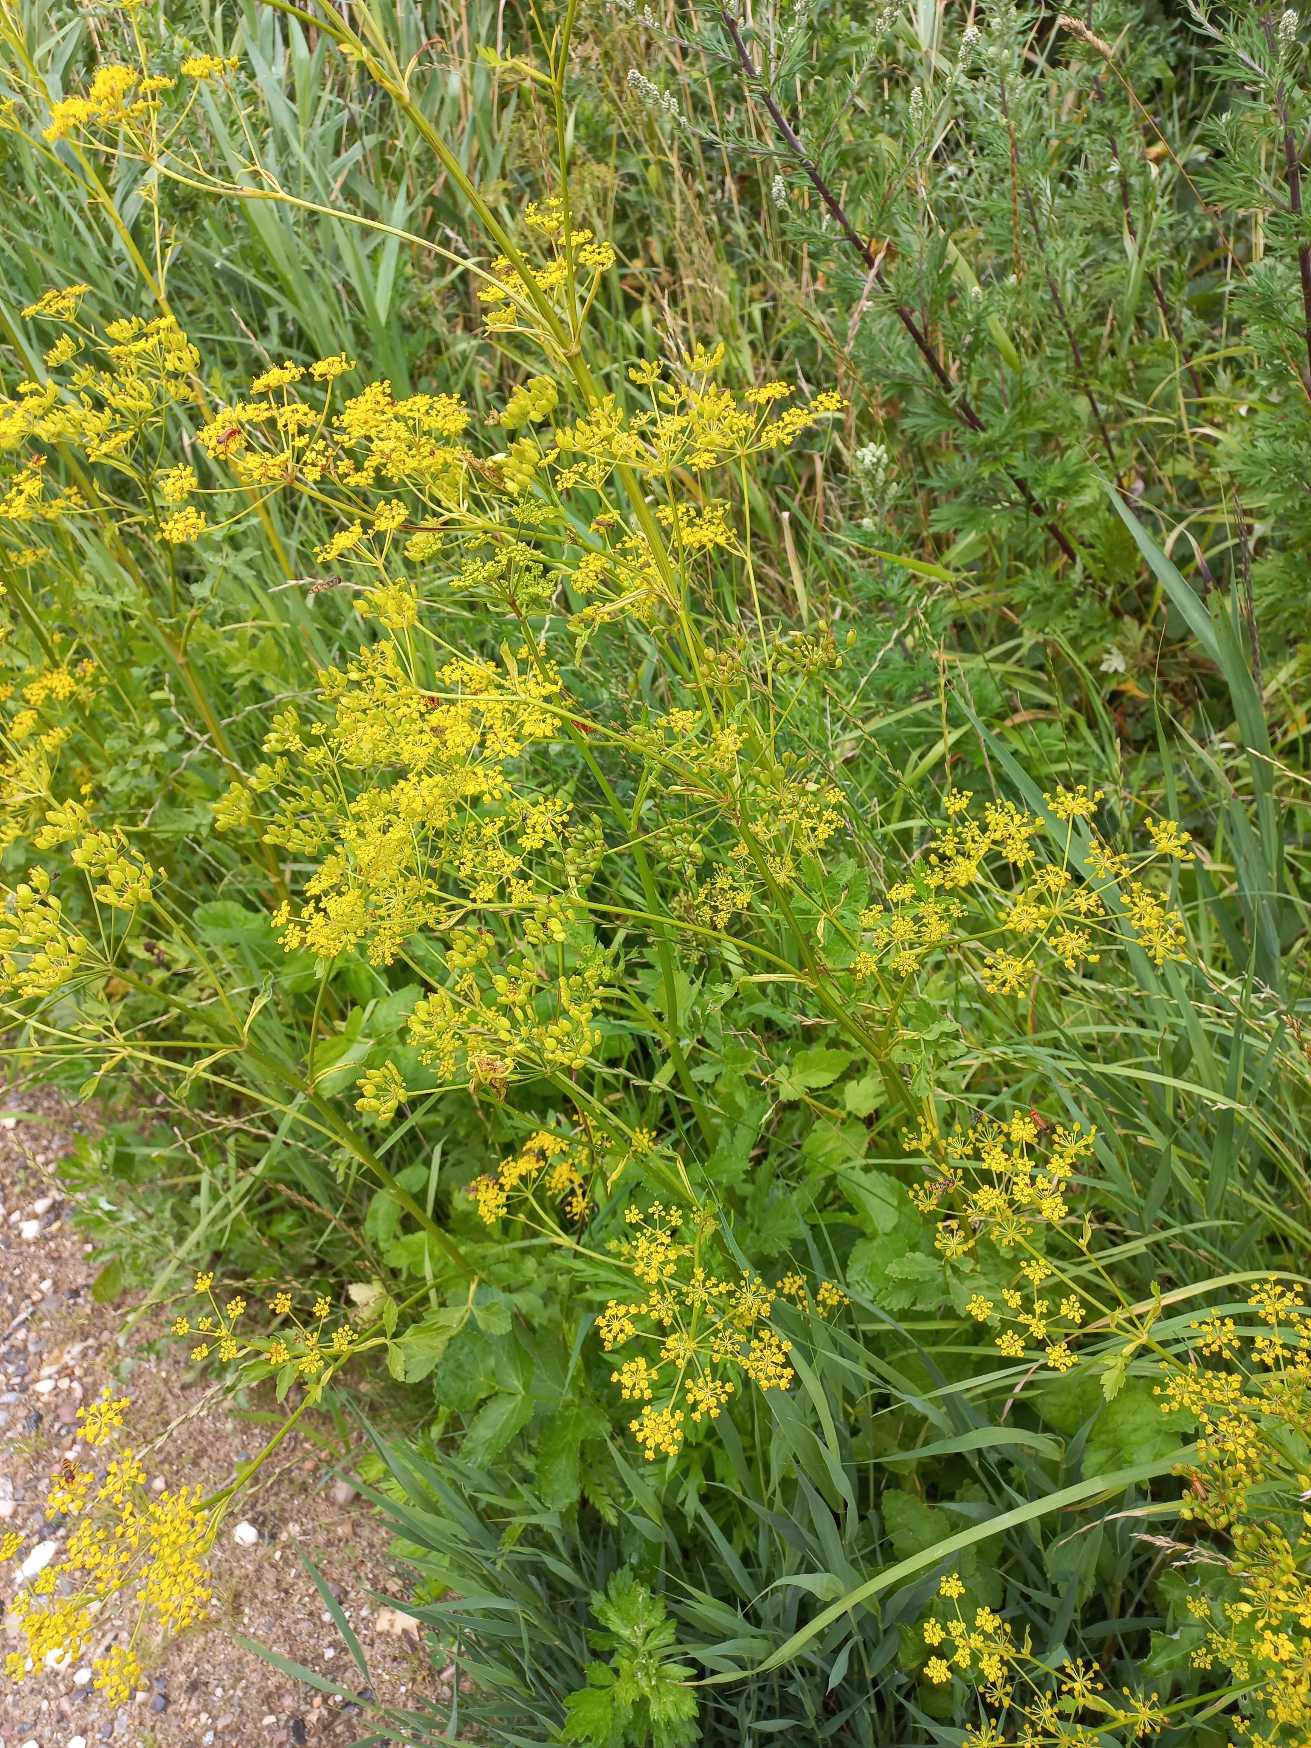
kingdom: Plantae
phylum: Tracheophyta
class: Magnoliopsida
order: Apiales
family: Apiaceae
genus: Pastinaca
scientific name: Pastinaca sativa
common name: Have-pastinak
